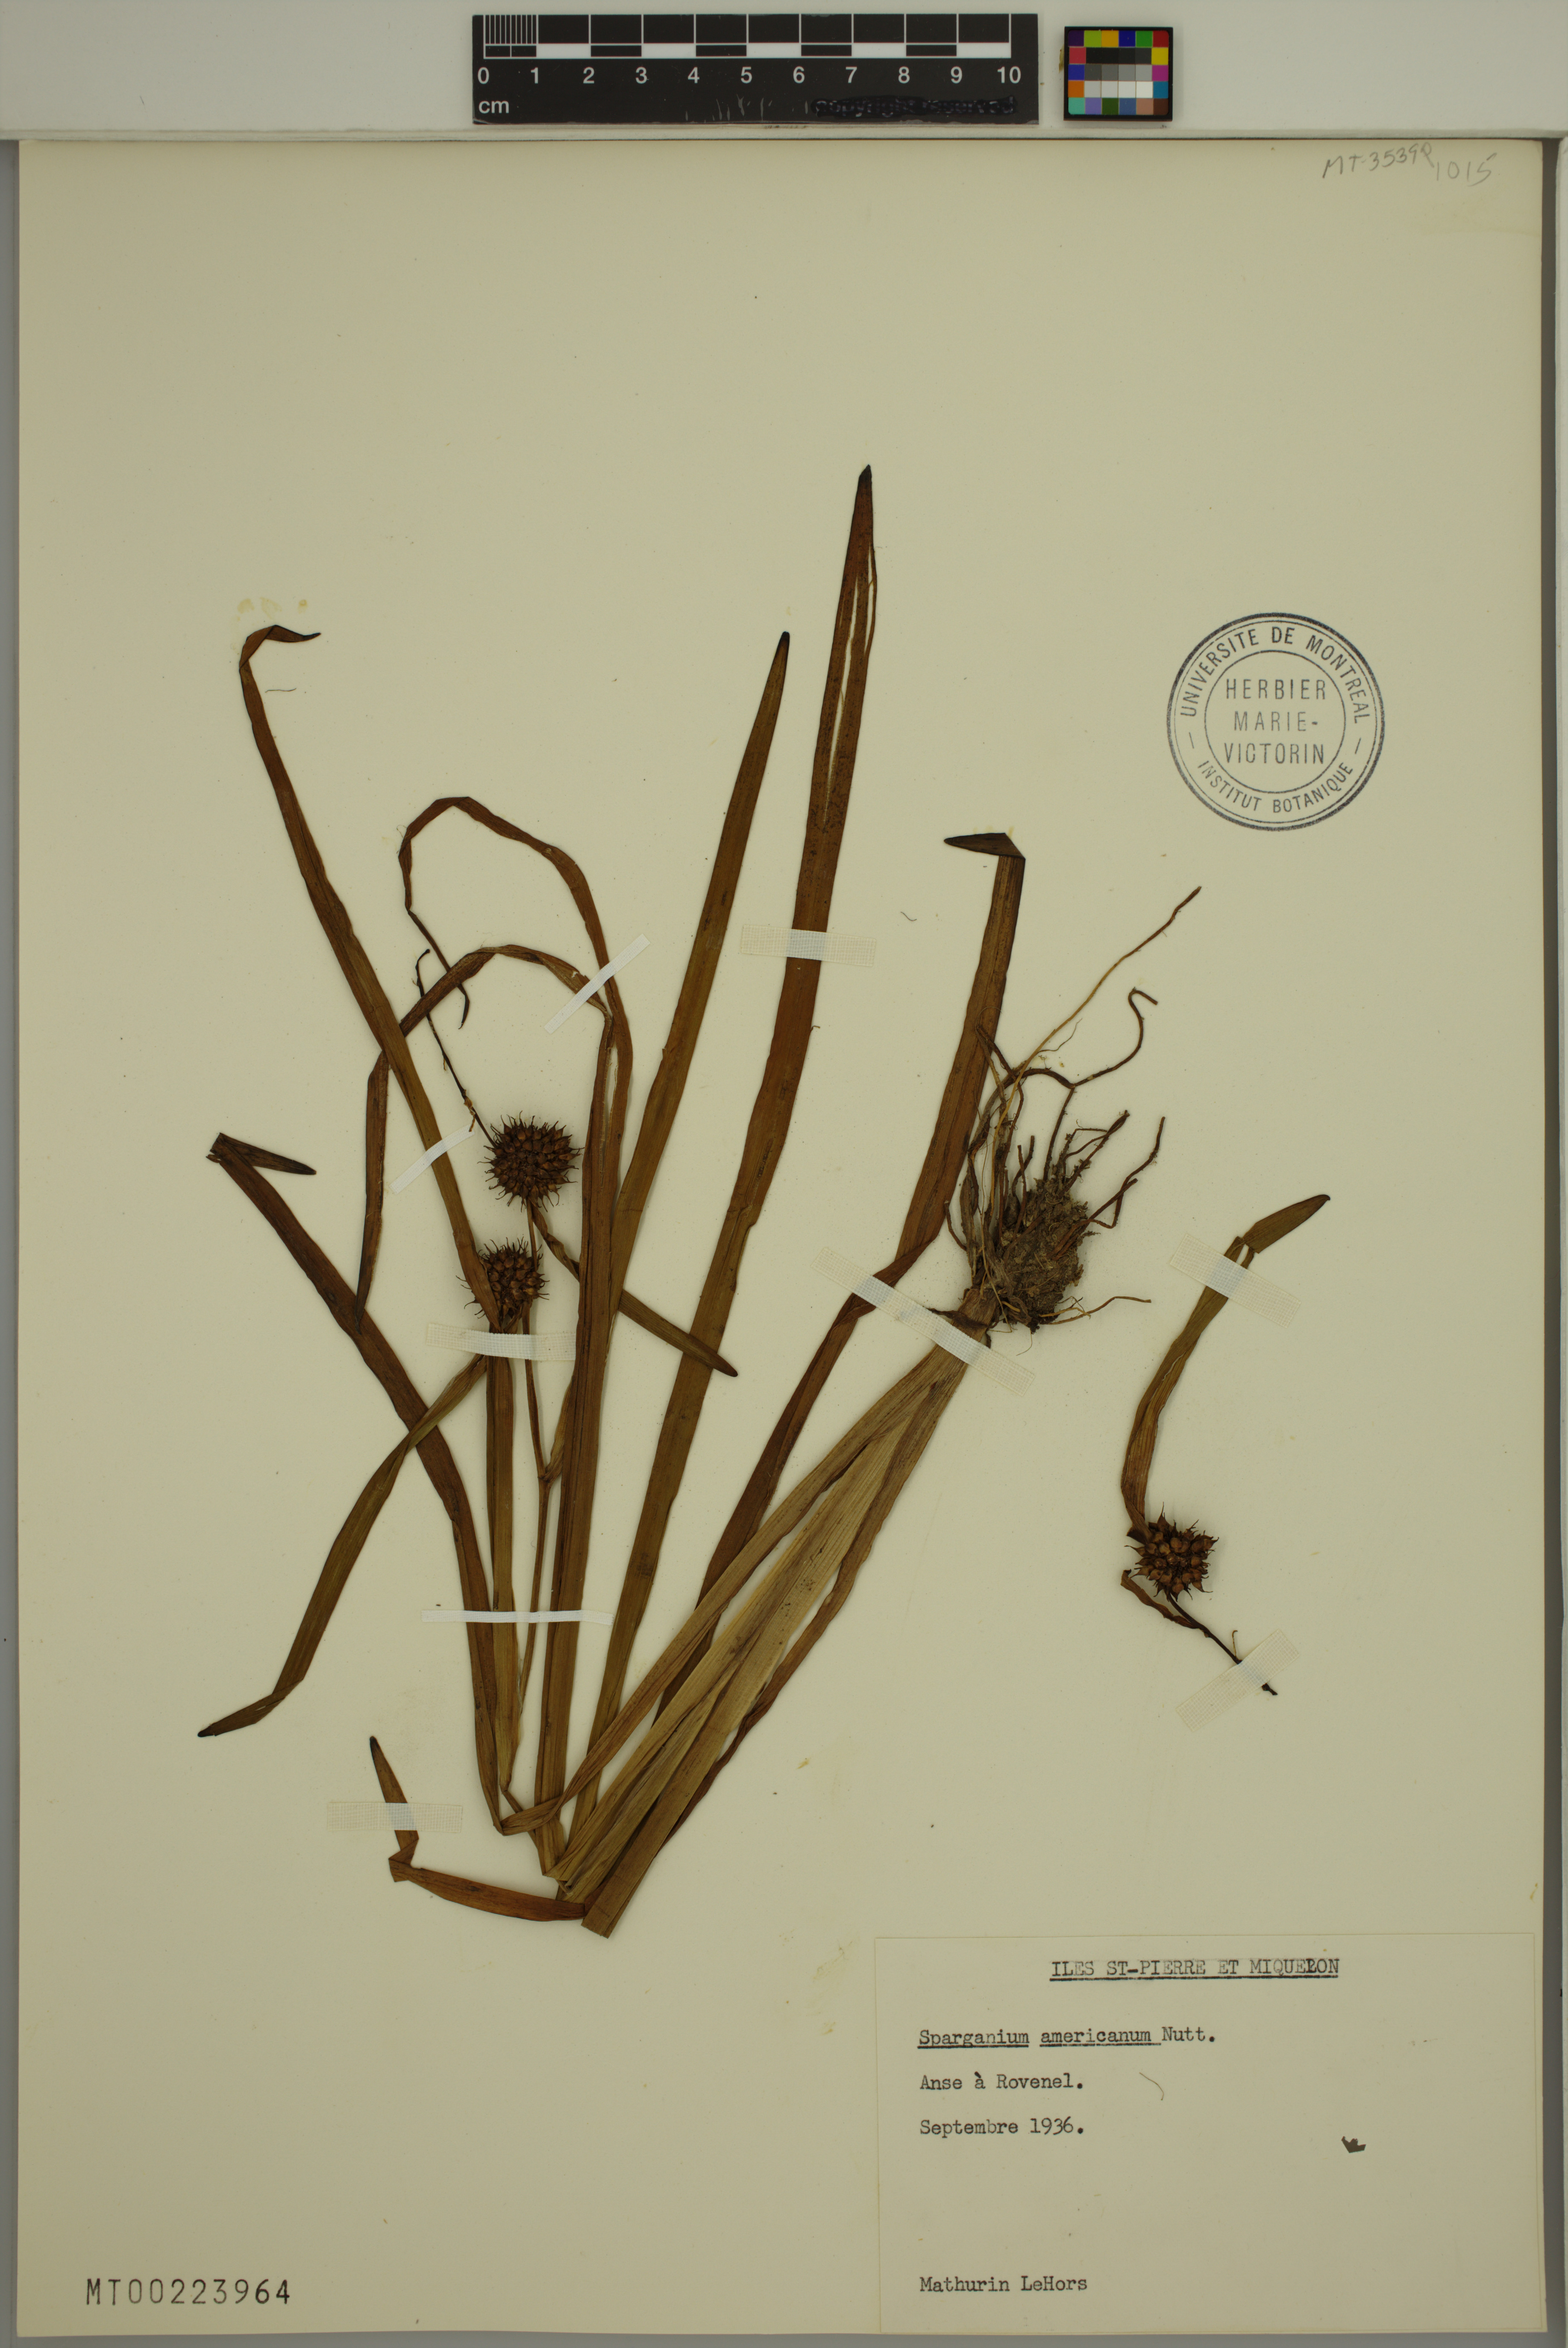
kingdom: Plantae
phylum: Tracheophyta
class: Liliopsida
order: Poales
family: Typhaceae
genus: Sparganium
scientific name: Sparganium americanum
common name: American burreed
